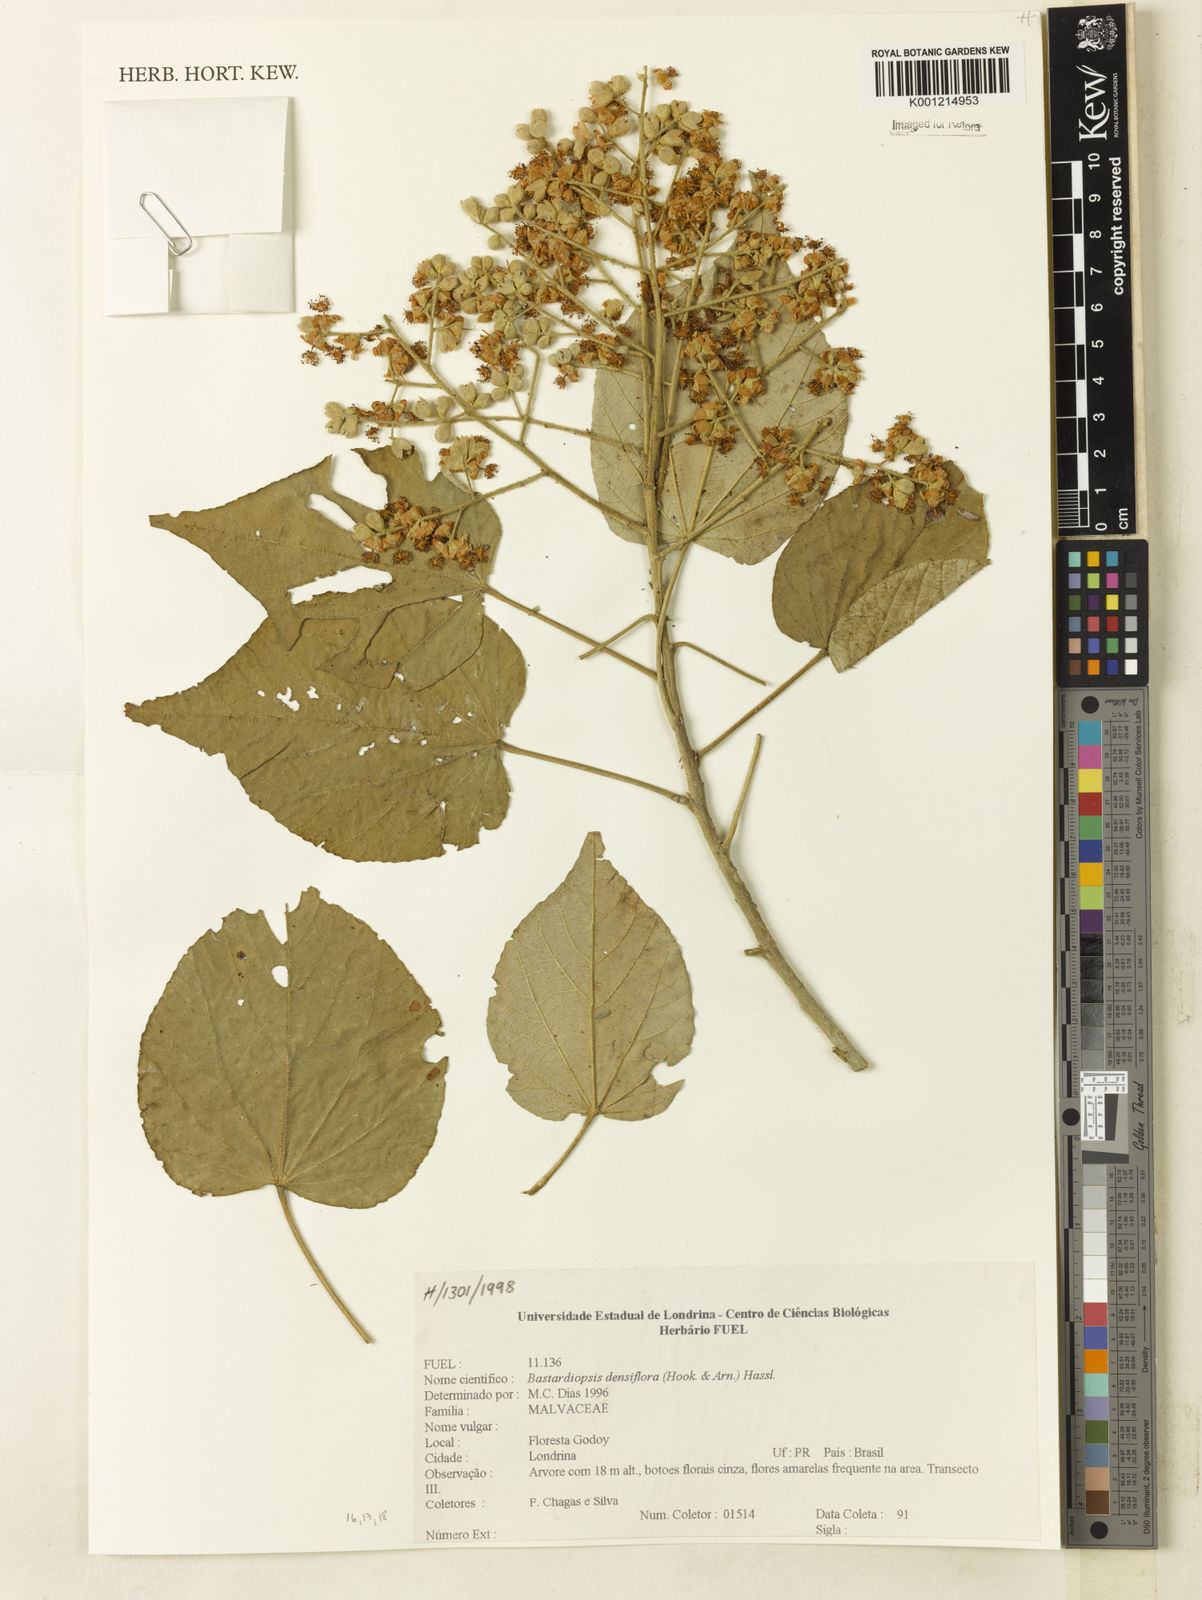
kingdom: Plantae
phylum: Tracheophyta
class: Magnoliopsida
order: Malvales
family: Malvaceae
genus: Bastardiopsis
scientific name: Bastardiopsis densiflora
